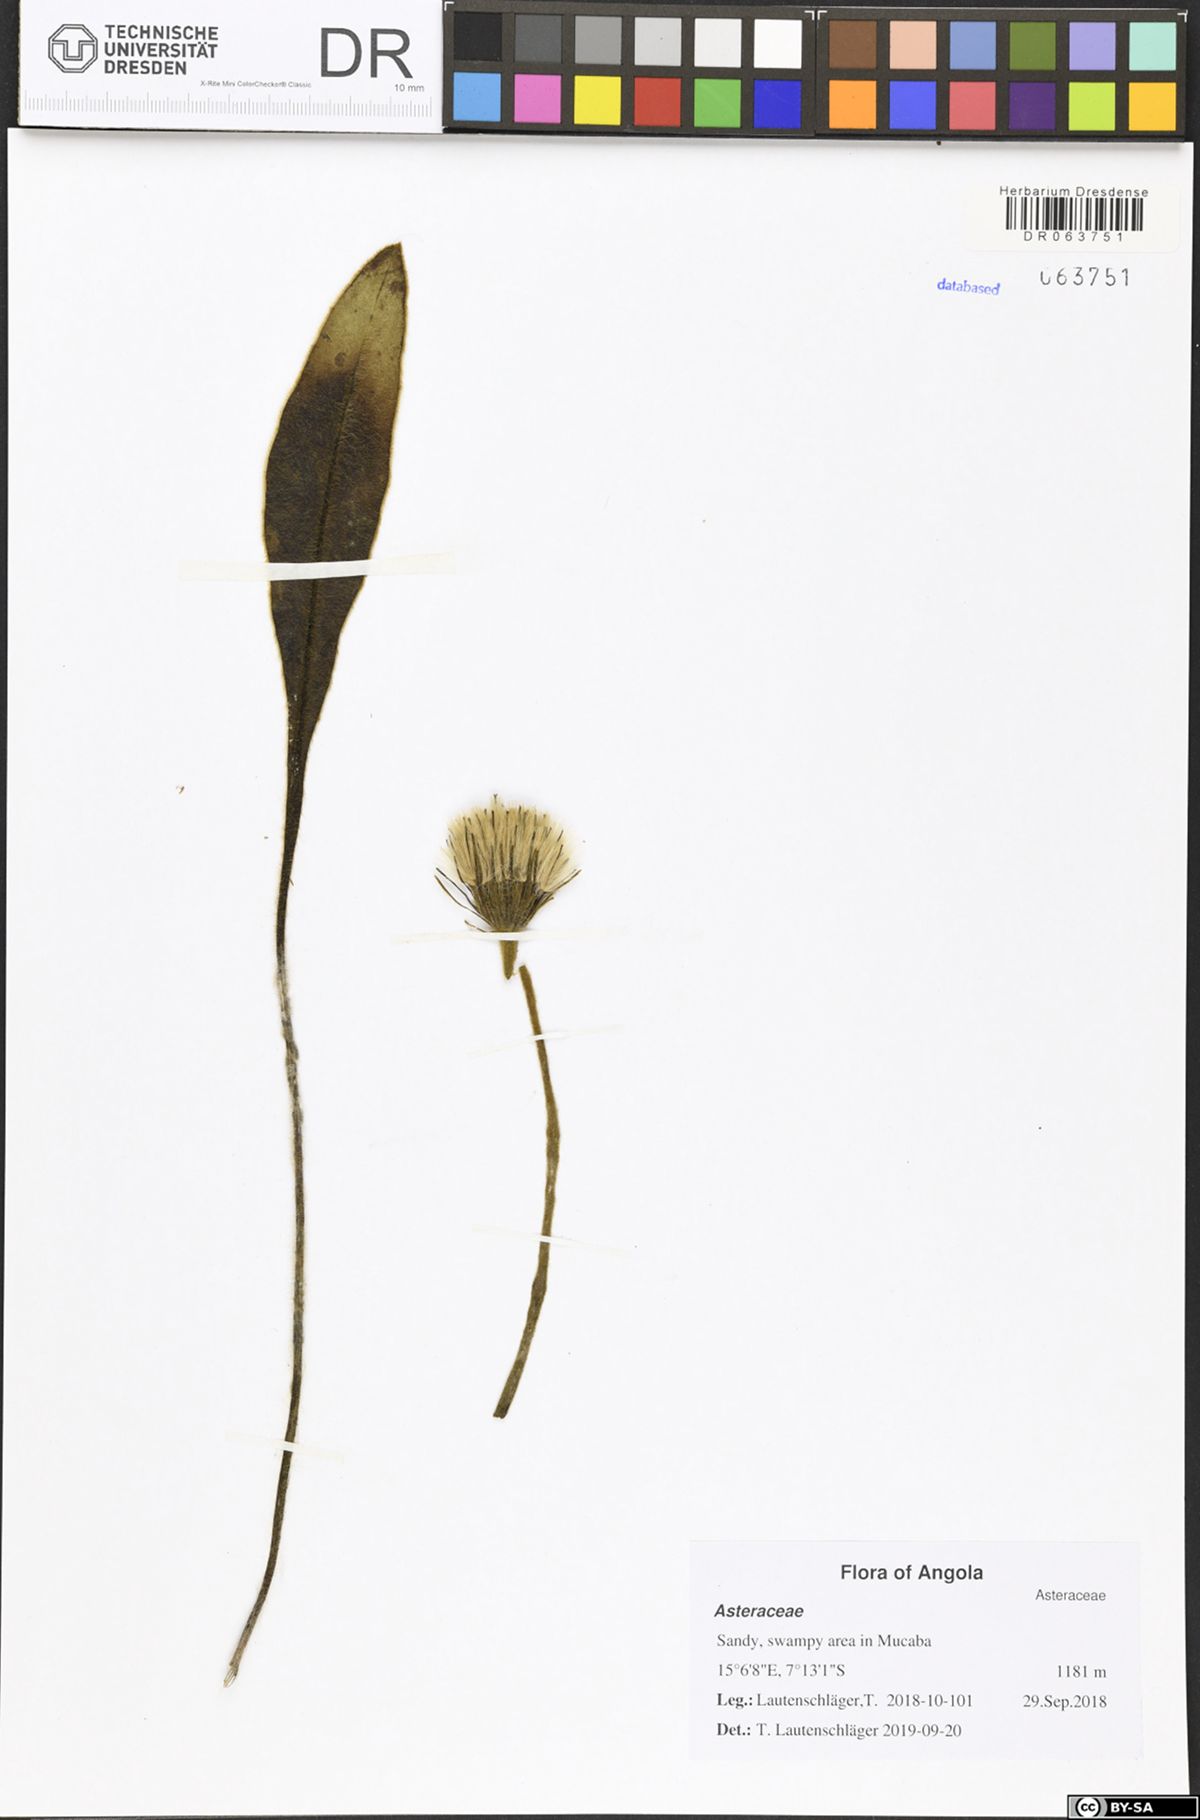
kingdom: Plantae
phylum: Tracheophyta
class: Magnoliopsida
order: Asterales
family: Asteraceae
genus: Gerbera
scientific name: Gerbera ambigua
